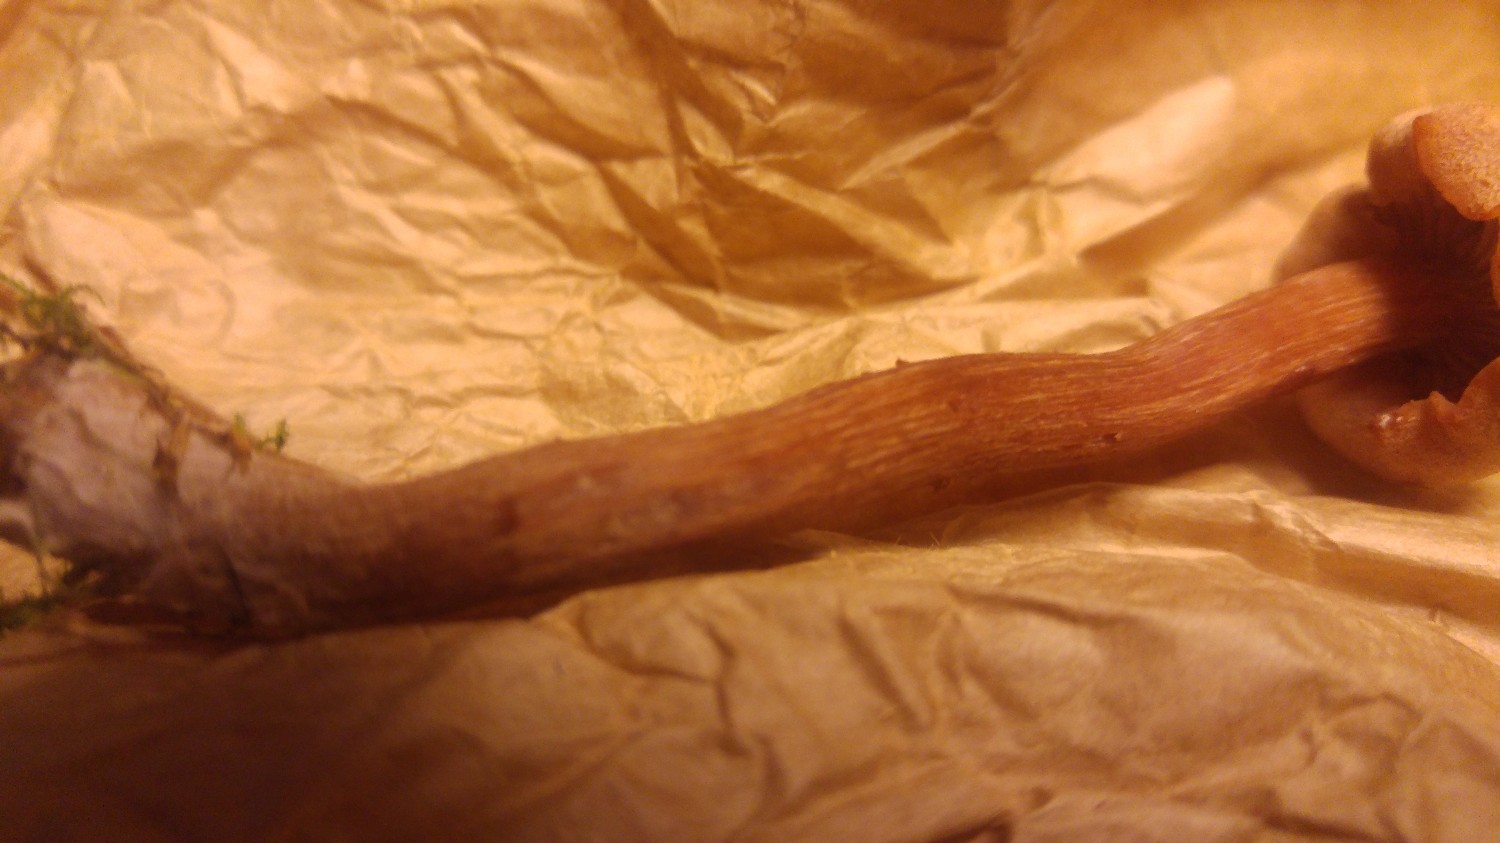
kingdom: Fungi
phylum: Basidiomycota
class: Agaricomycetes
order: Agaricales
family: Hydnangiaceae
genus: Laccaria
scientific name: Laccaria proxima
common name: stor ametysthat
